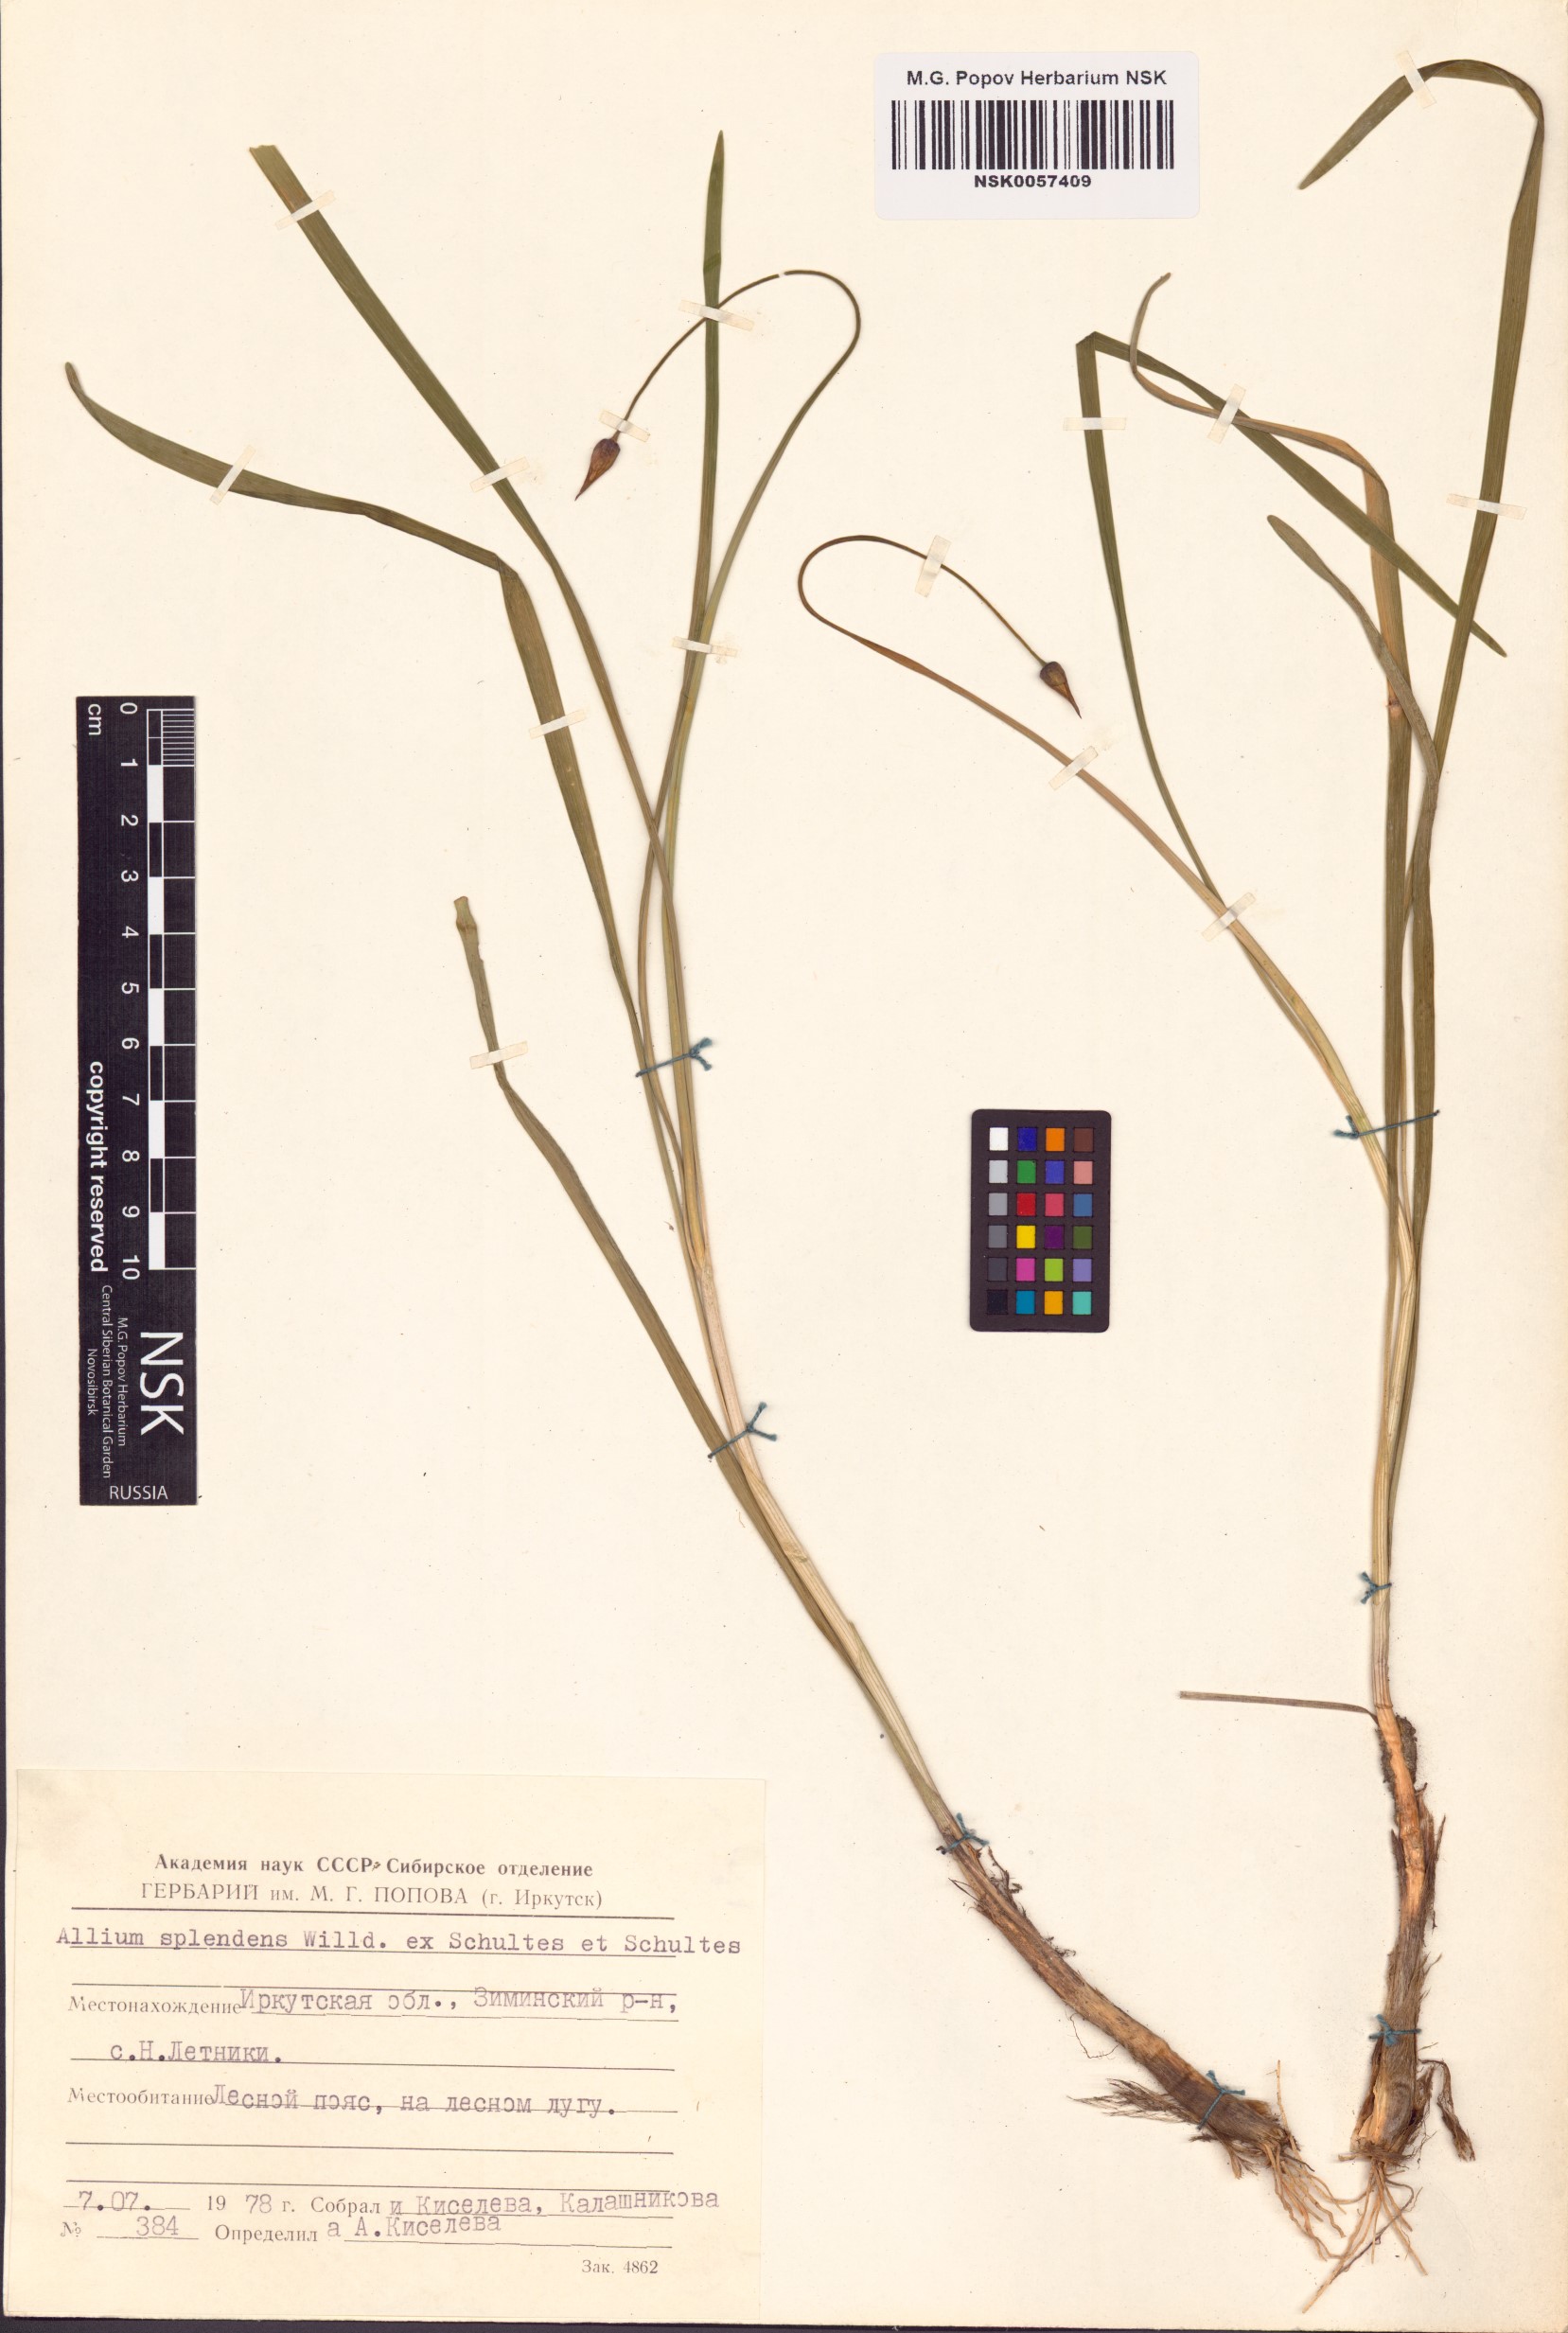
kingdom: Plantae
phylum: Tracheophyta
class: Liliopsida
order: Asparagales
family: Amaryllidaceae
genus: Allium
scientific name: Allium splendens
